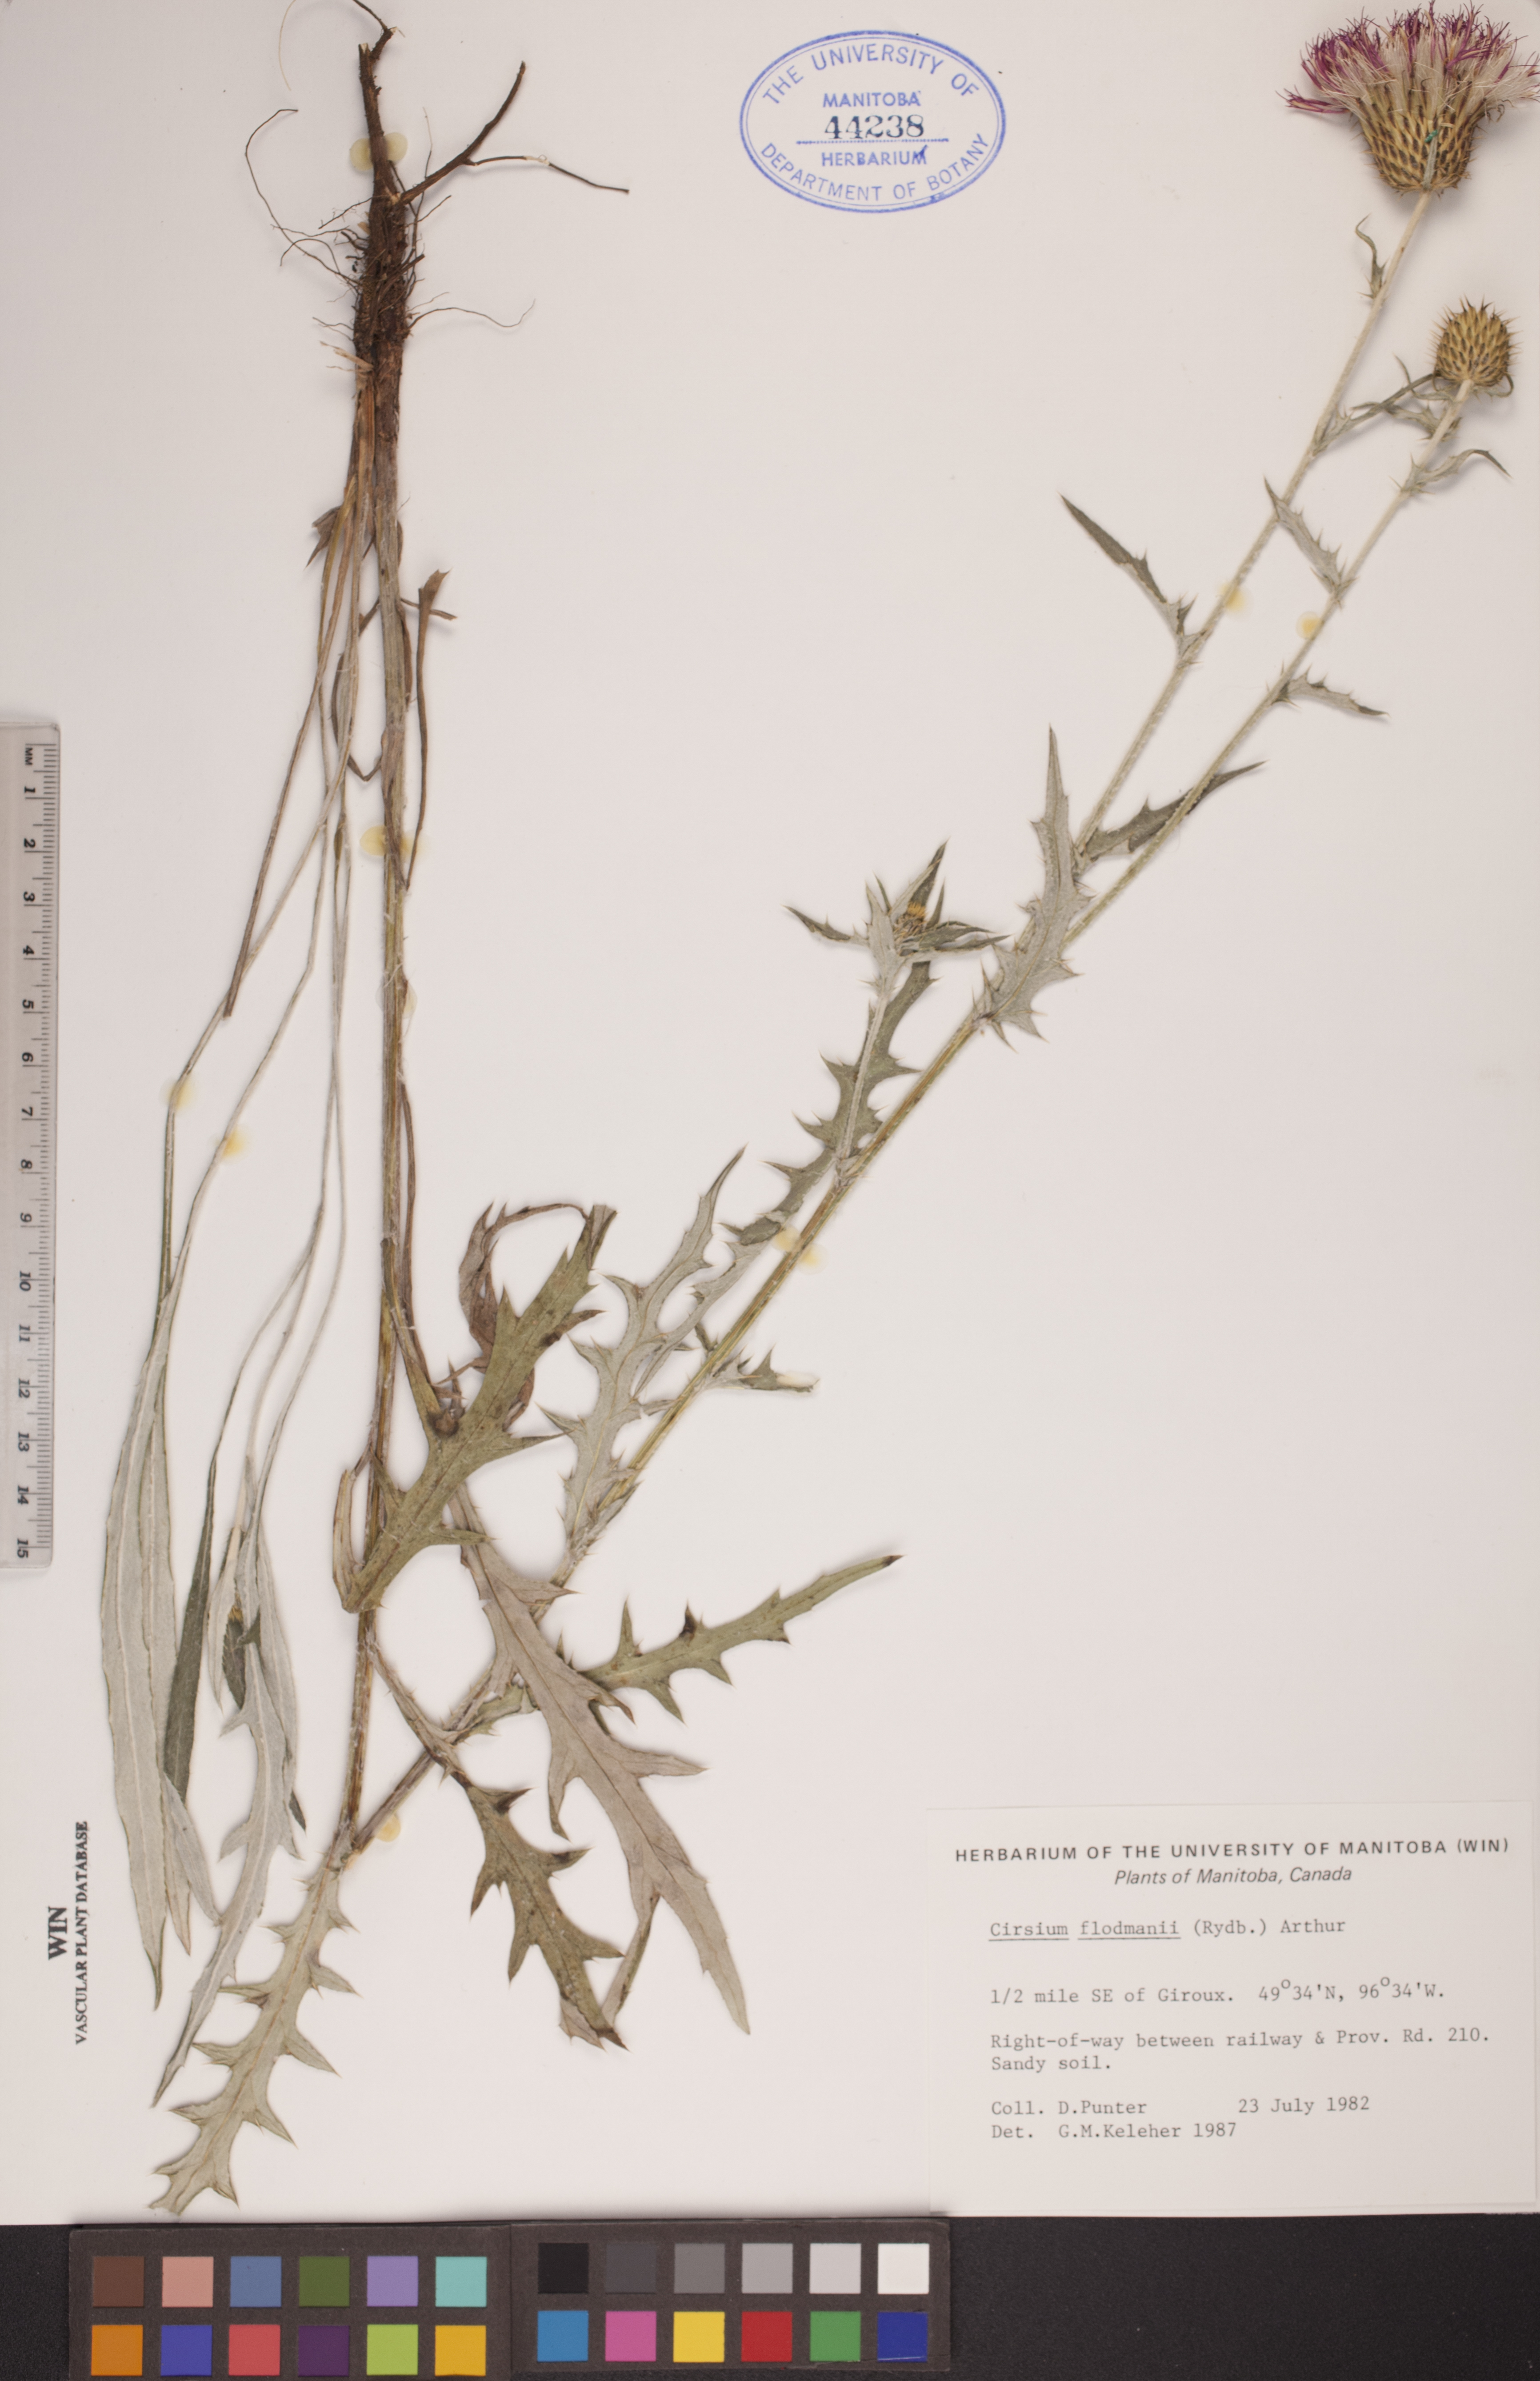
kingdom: Plantae
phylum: Tracheophyta
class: Magnoliopsida
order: Asterales
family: Asteraceae
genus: Cirsium
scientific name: Cirsium flodmanii
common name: Flodman's thistle
